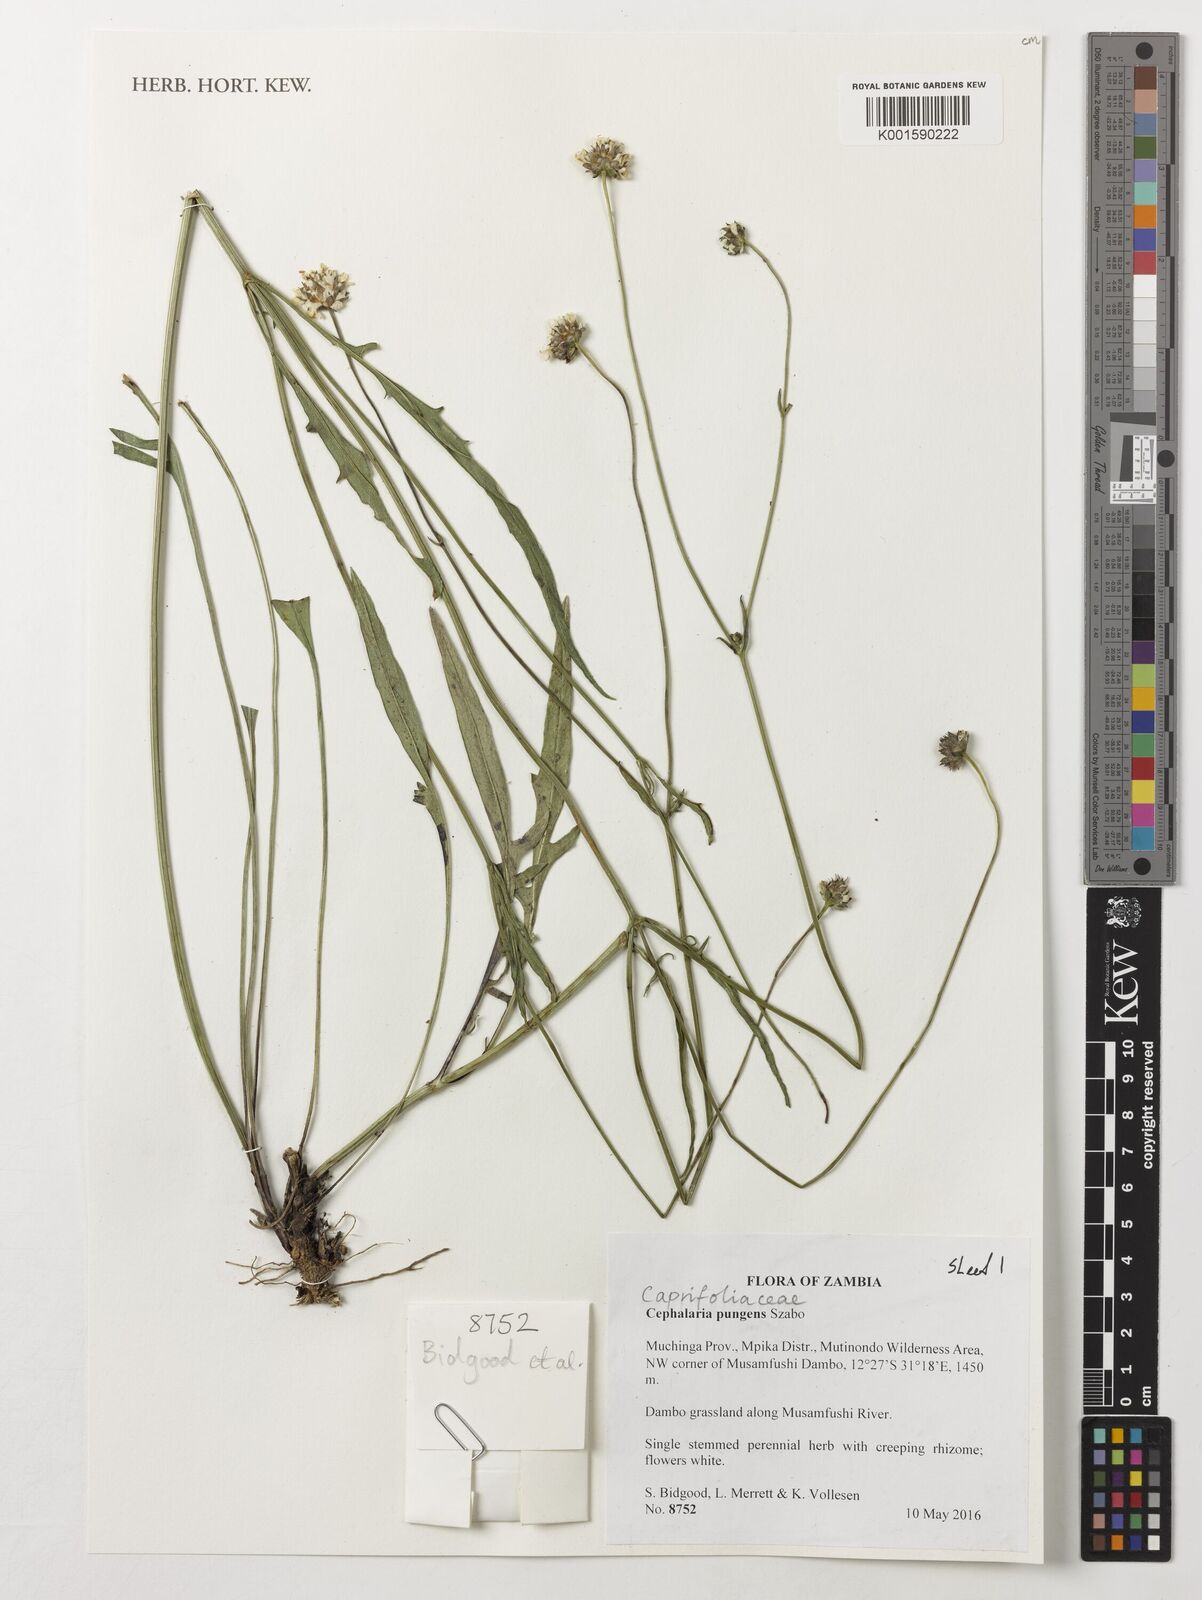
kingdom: Plantae
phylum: Tracheophyta
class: Magnoliopsida
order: Dipsacales
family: Caprifoliaceae
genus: Cephalaria
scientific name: Cephalaria pungens
